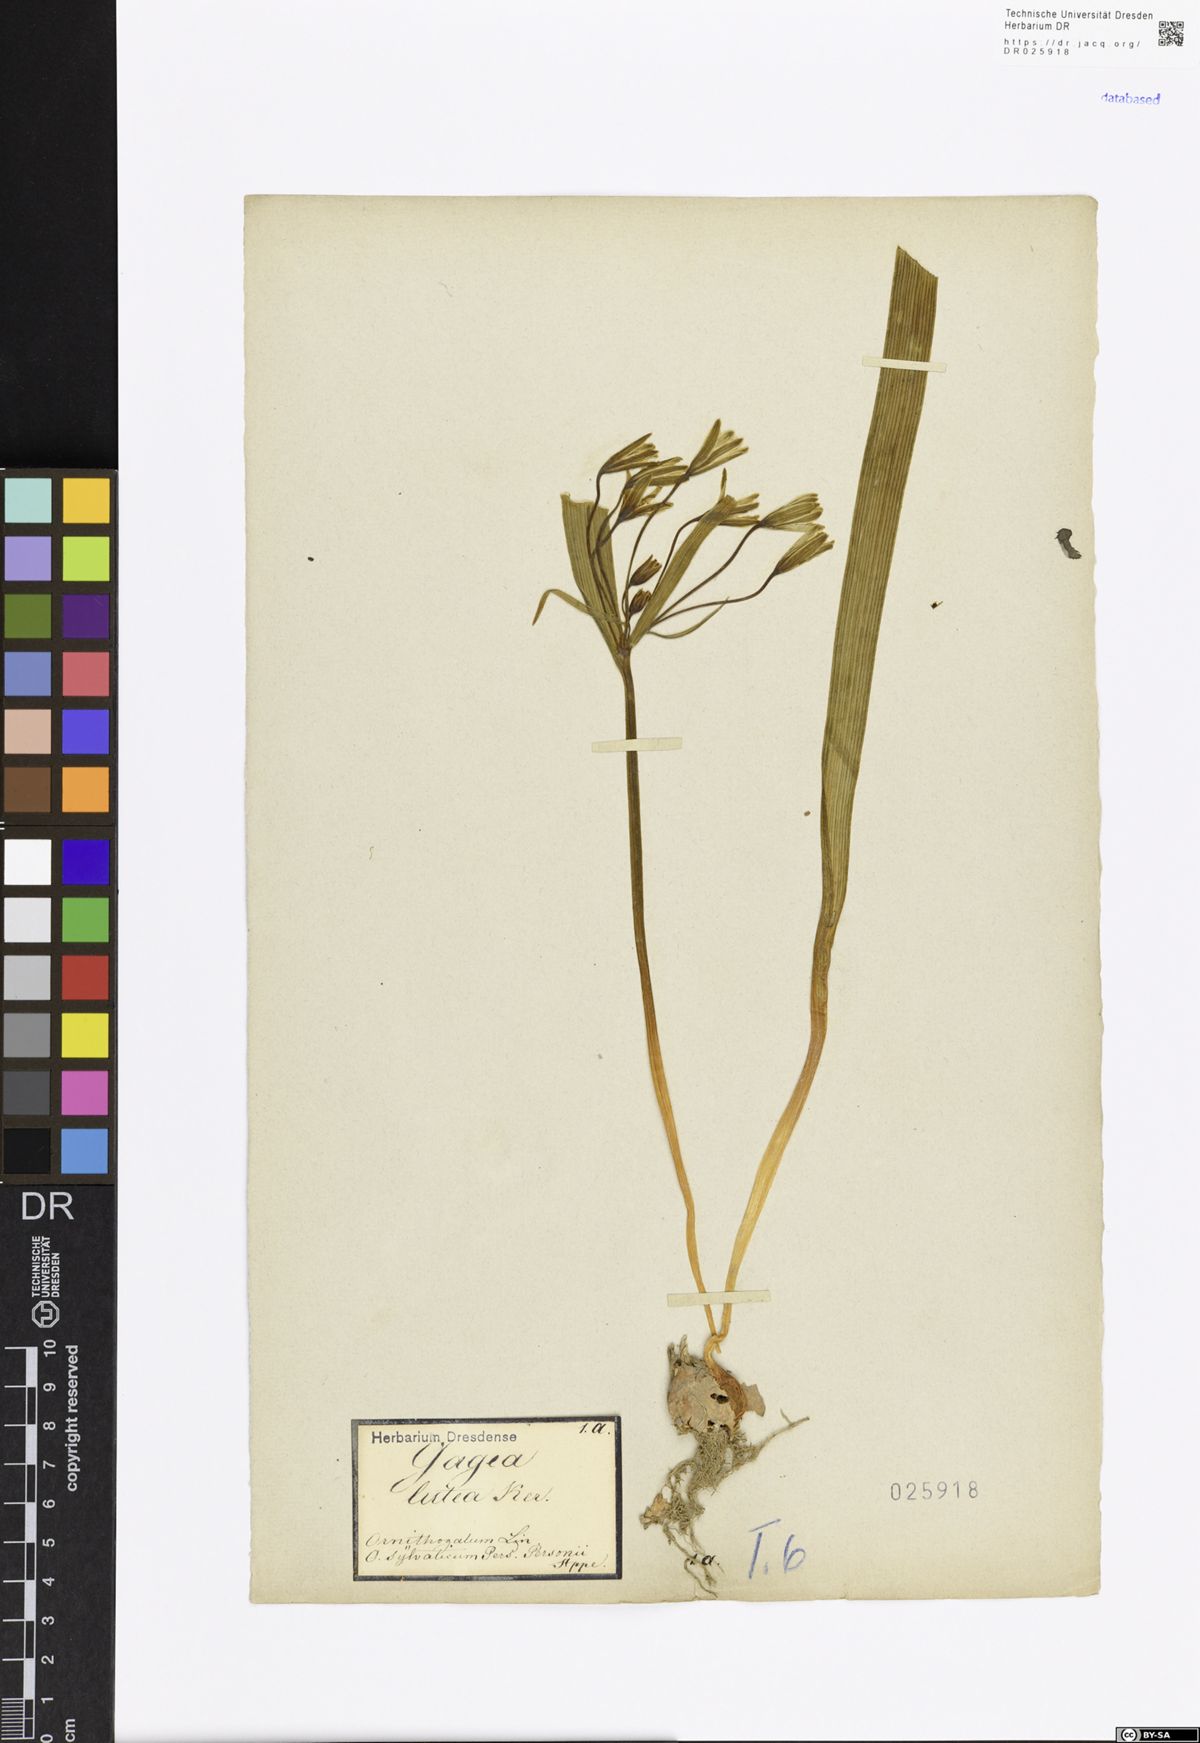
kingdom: Plantae
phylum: Tracheophyta
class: Liliopsida
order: Liliales
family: Liliaceae
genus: Gagea
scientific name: Gagea lutea
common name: Yellow star-of-bethlehem
